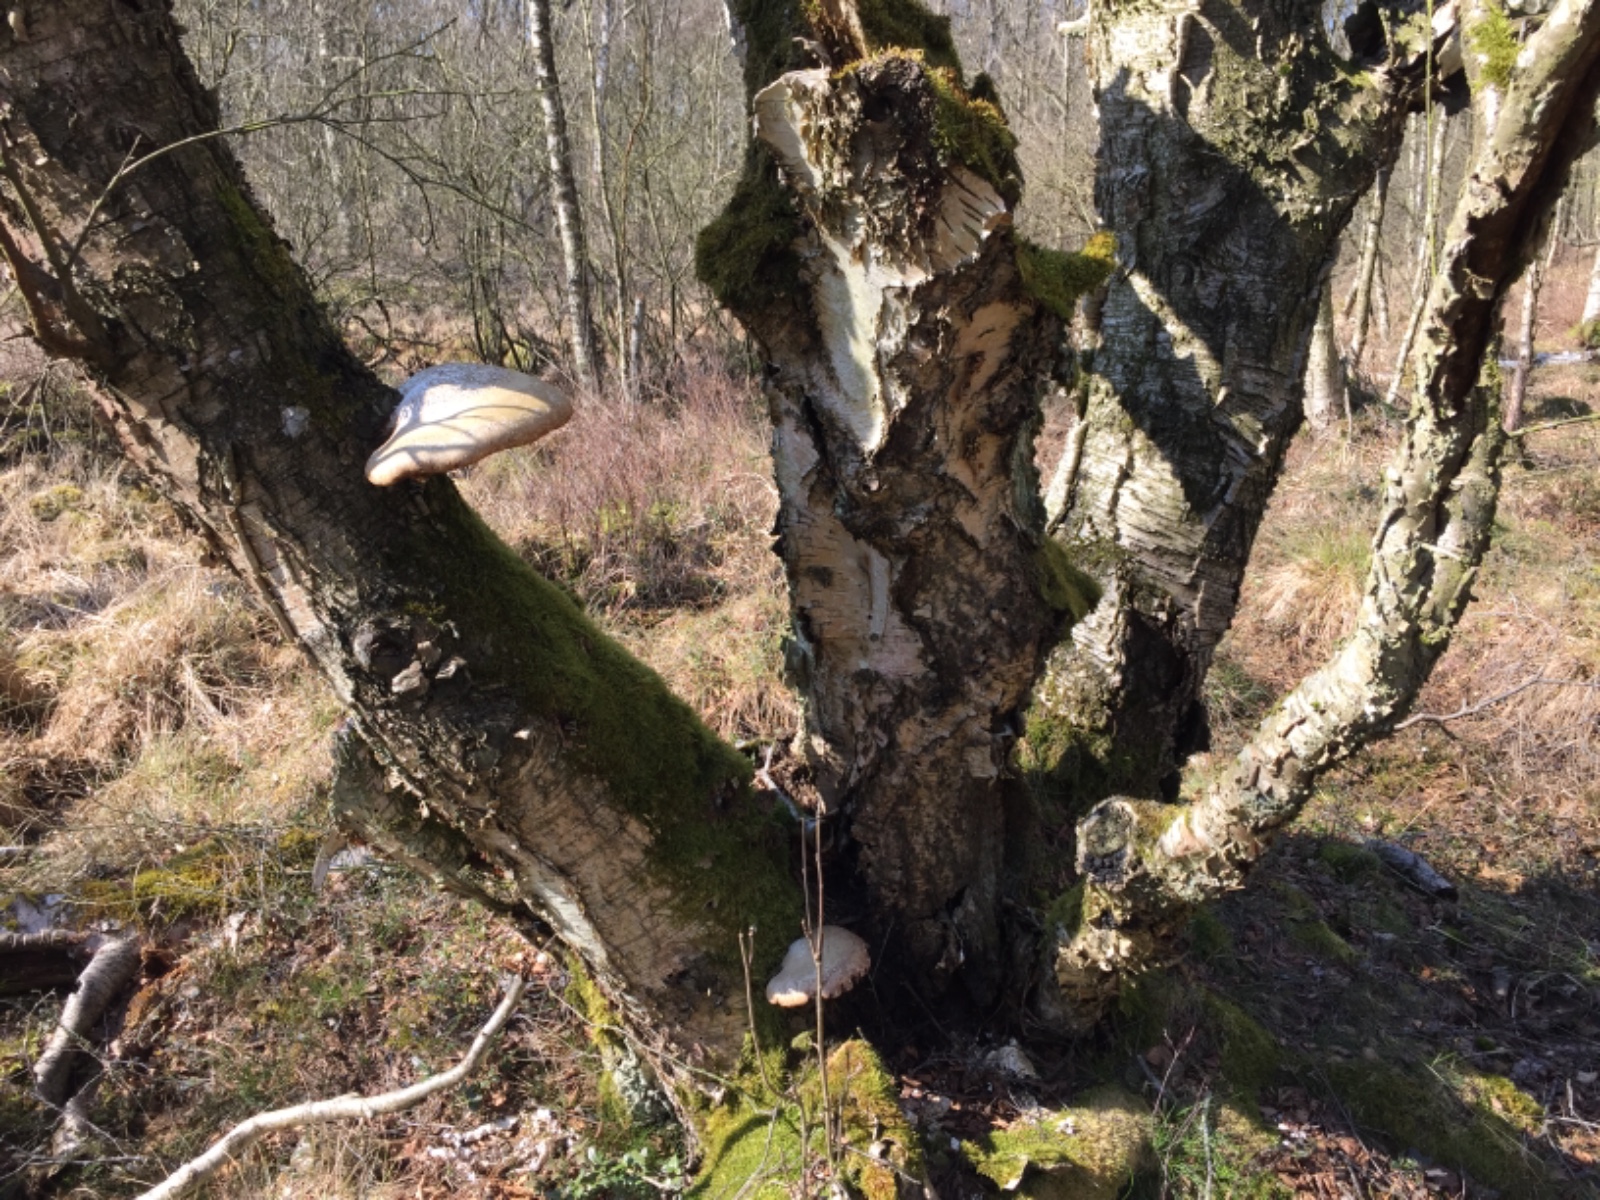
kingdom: Fungi
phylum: Basidiomycota
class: Agaricomycetes
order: Polyporales
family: Fomitopsidaceae
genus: Fomitopsis
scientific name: Fomitopsis betulina
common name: birkeporesvamp
